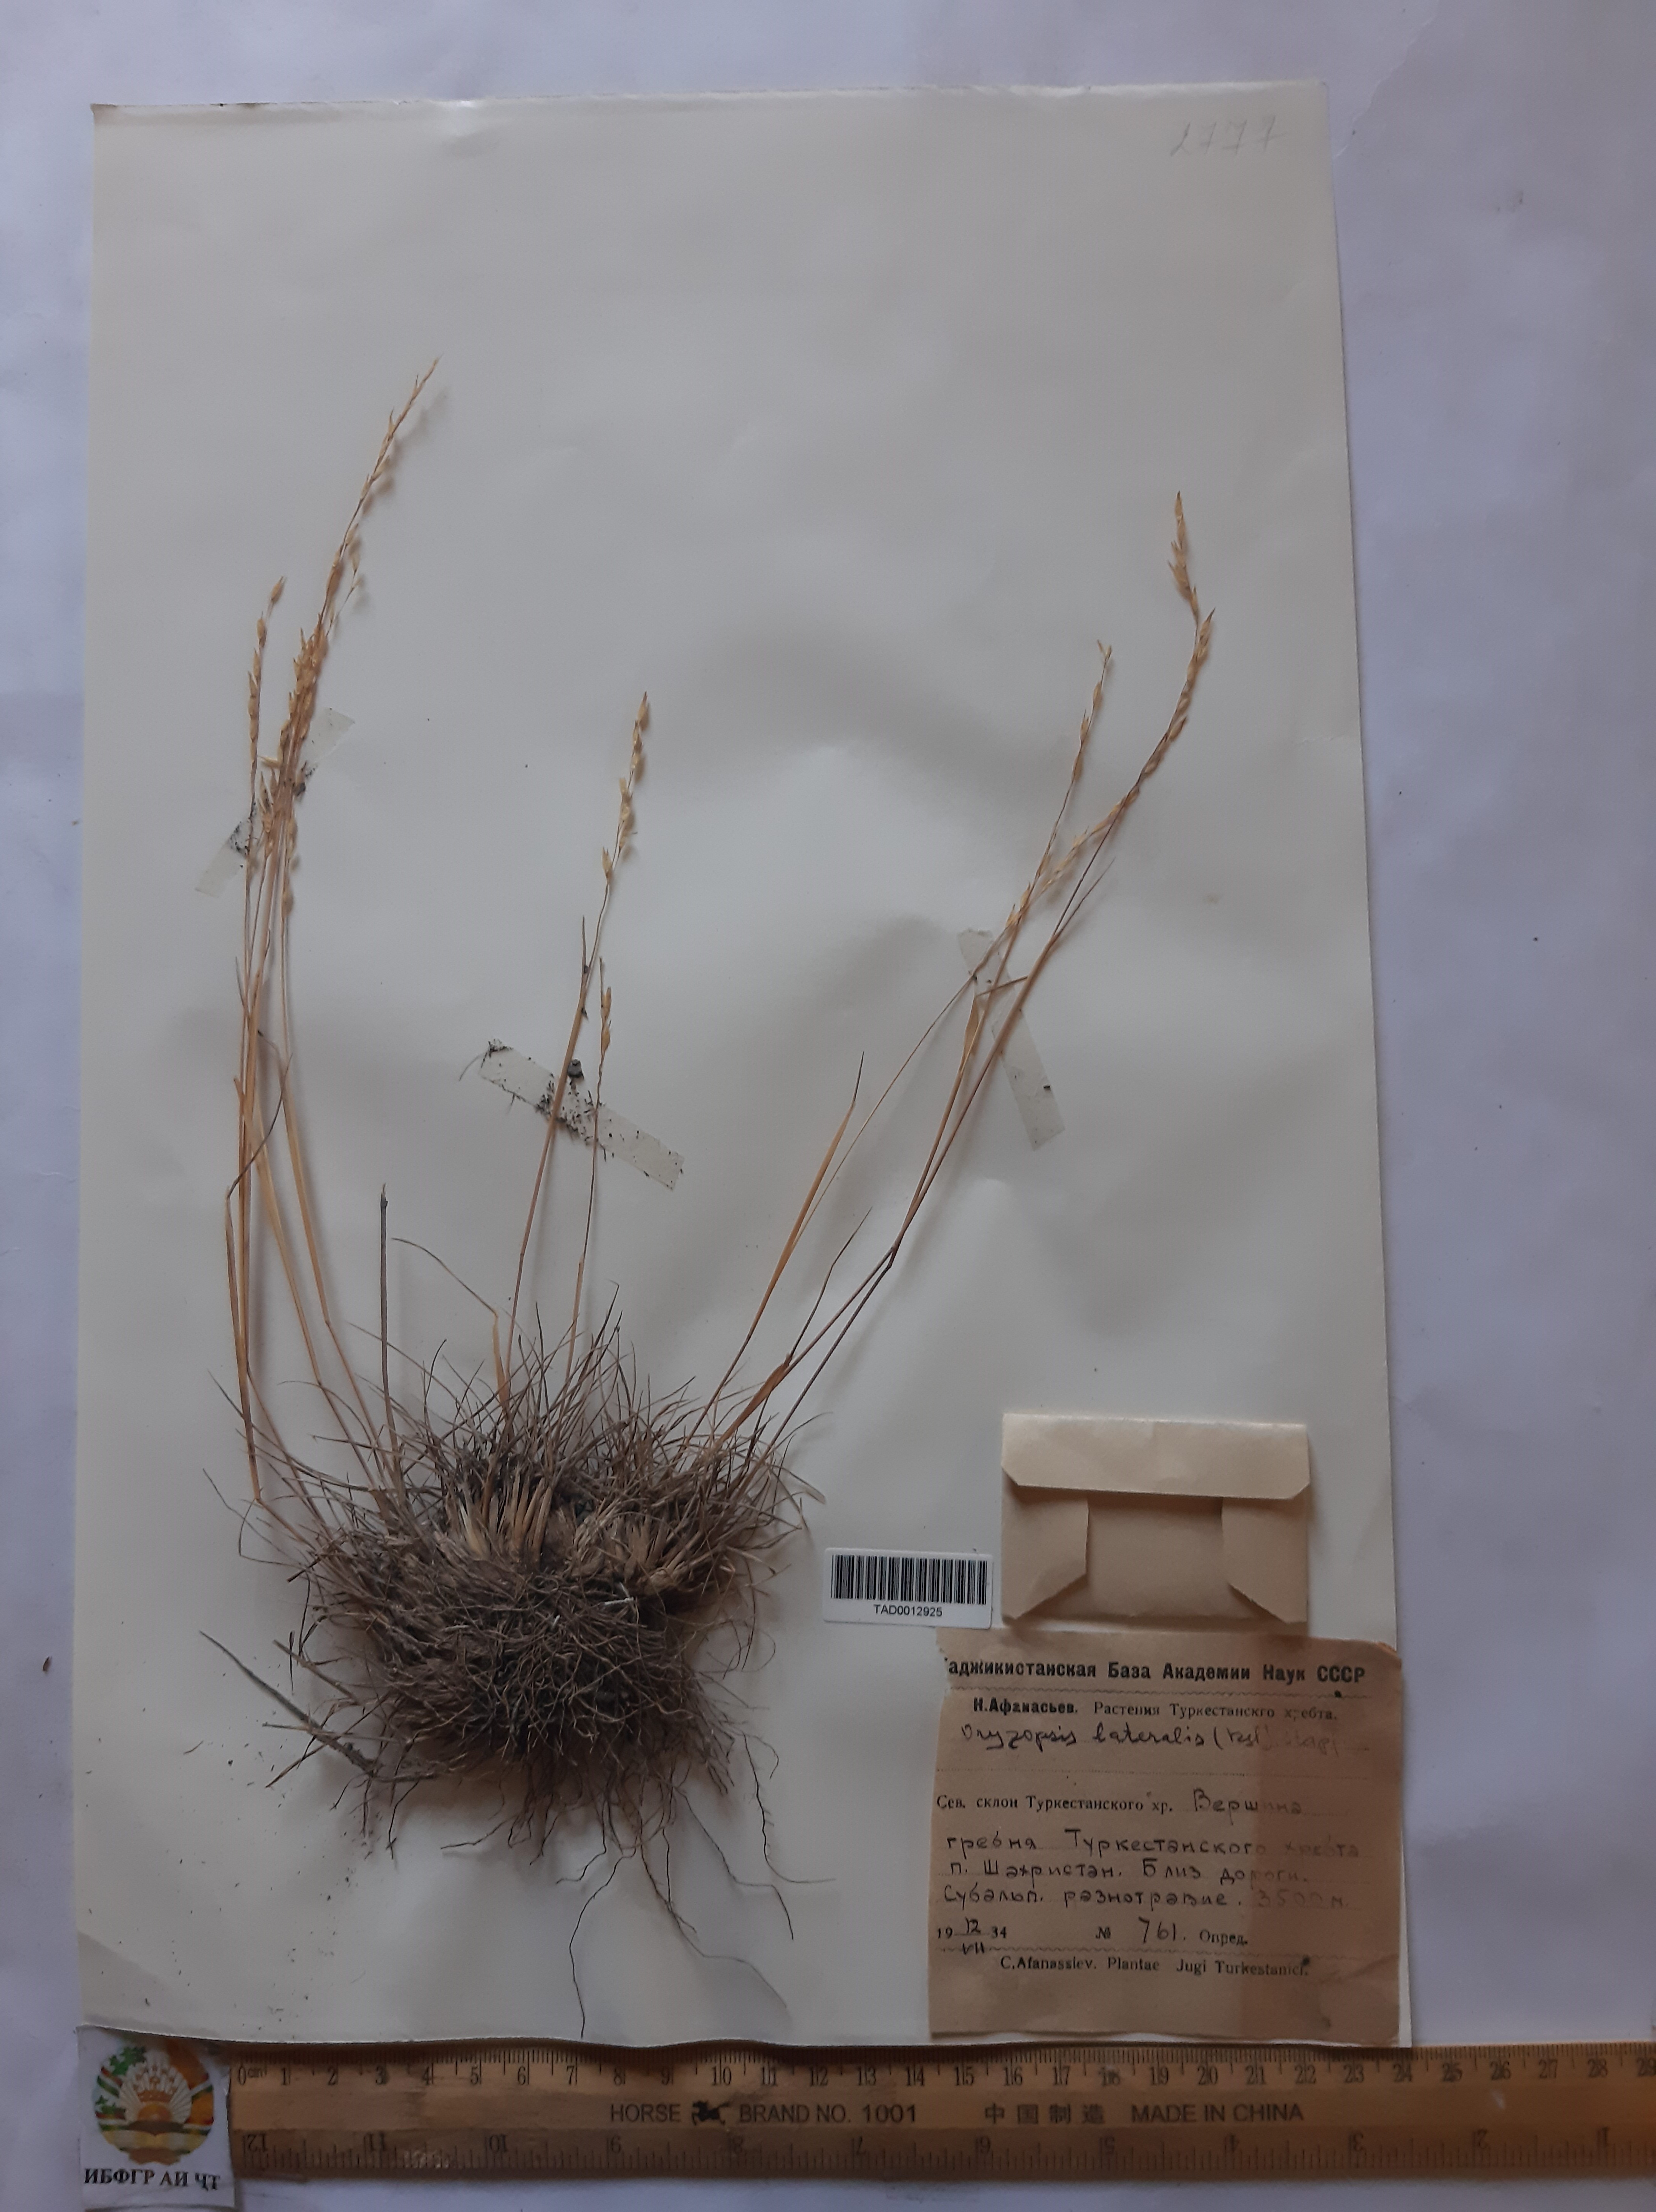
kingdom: Plantae
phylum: Tracheophyta
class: Liliopsida
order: Poales
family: Poaceae
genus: Piptatherum
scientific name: Piptatherum laterale
